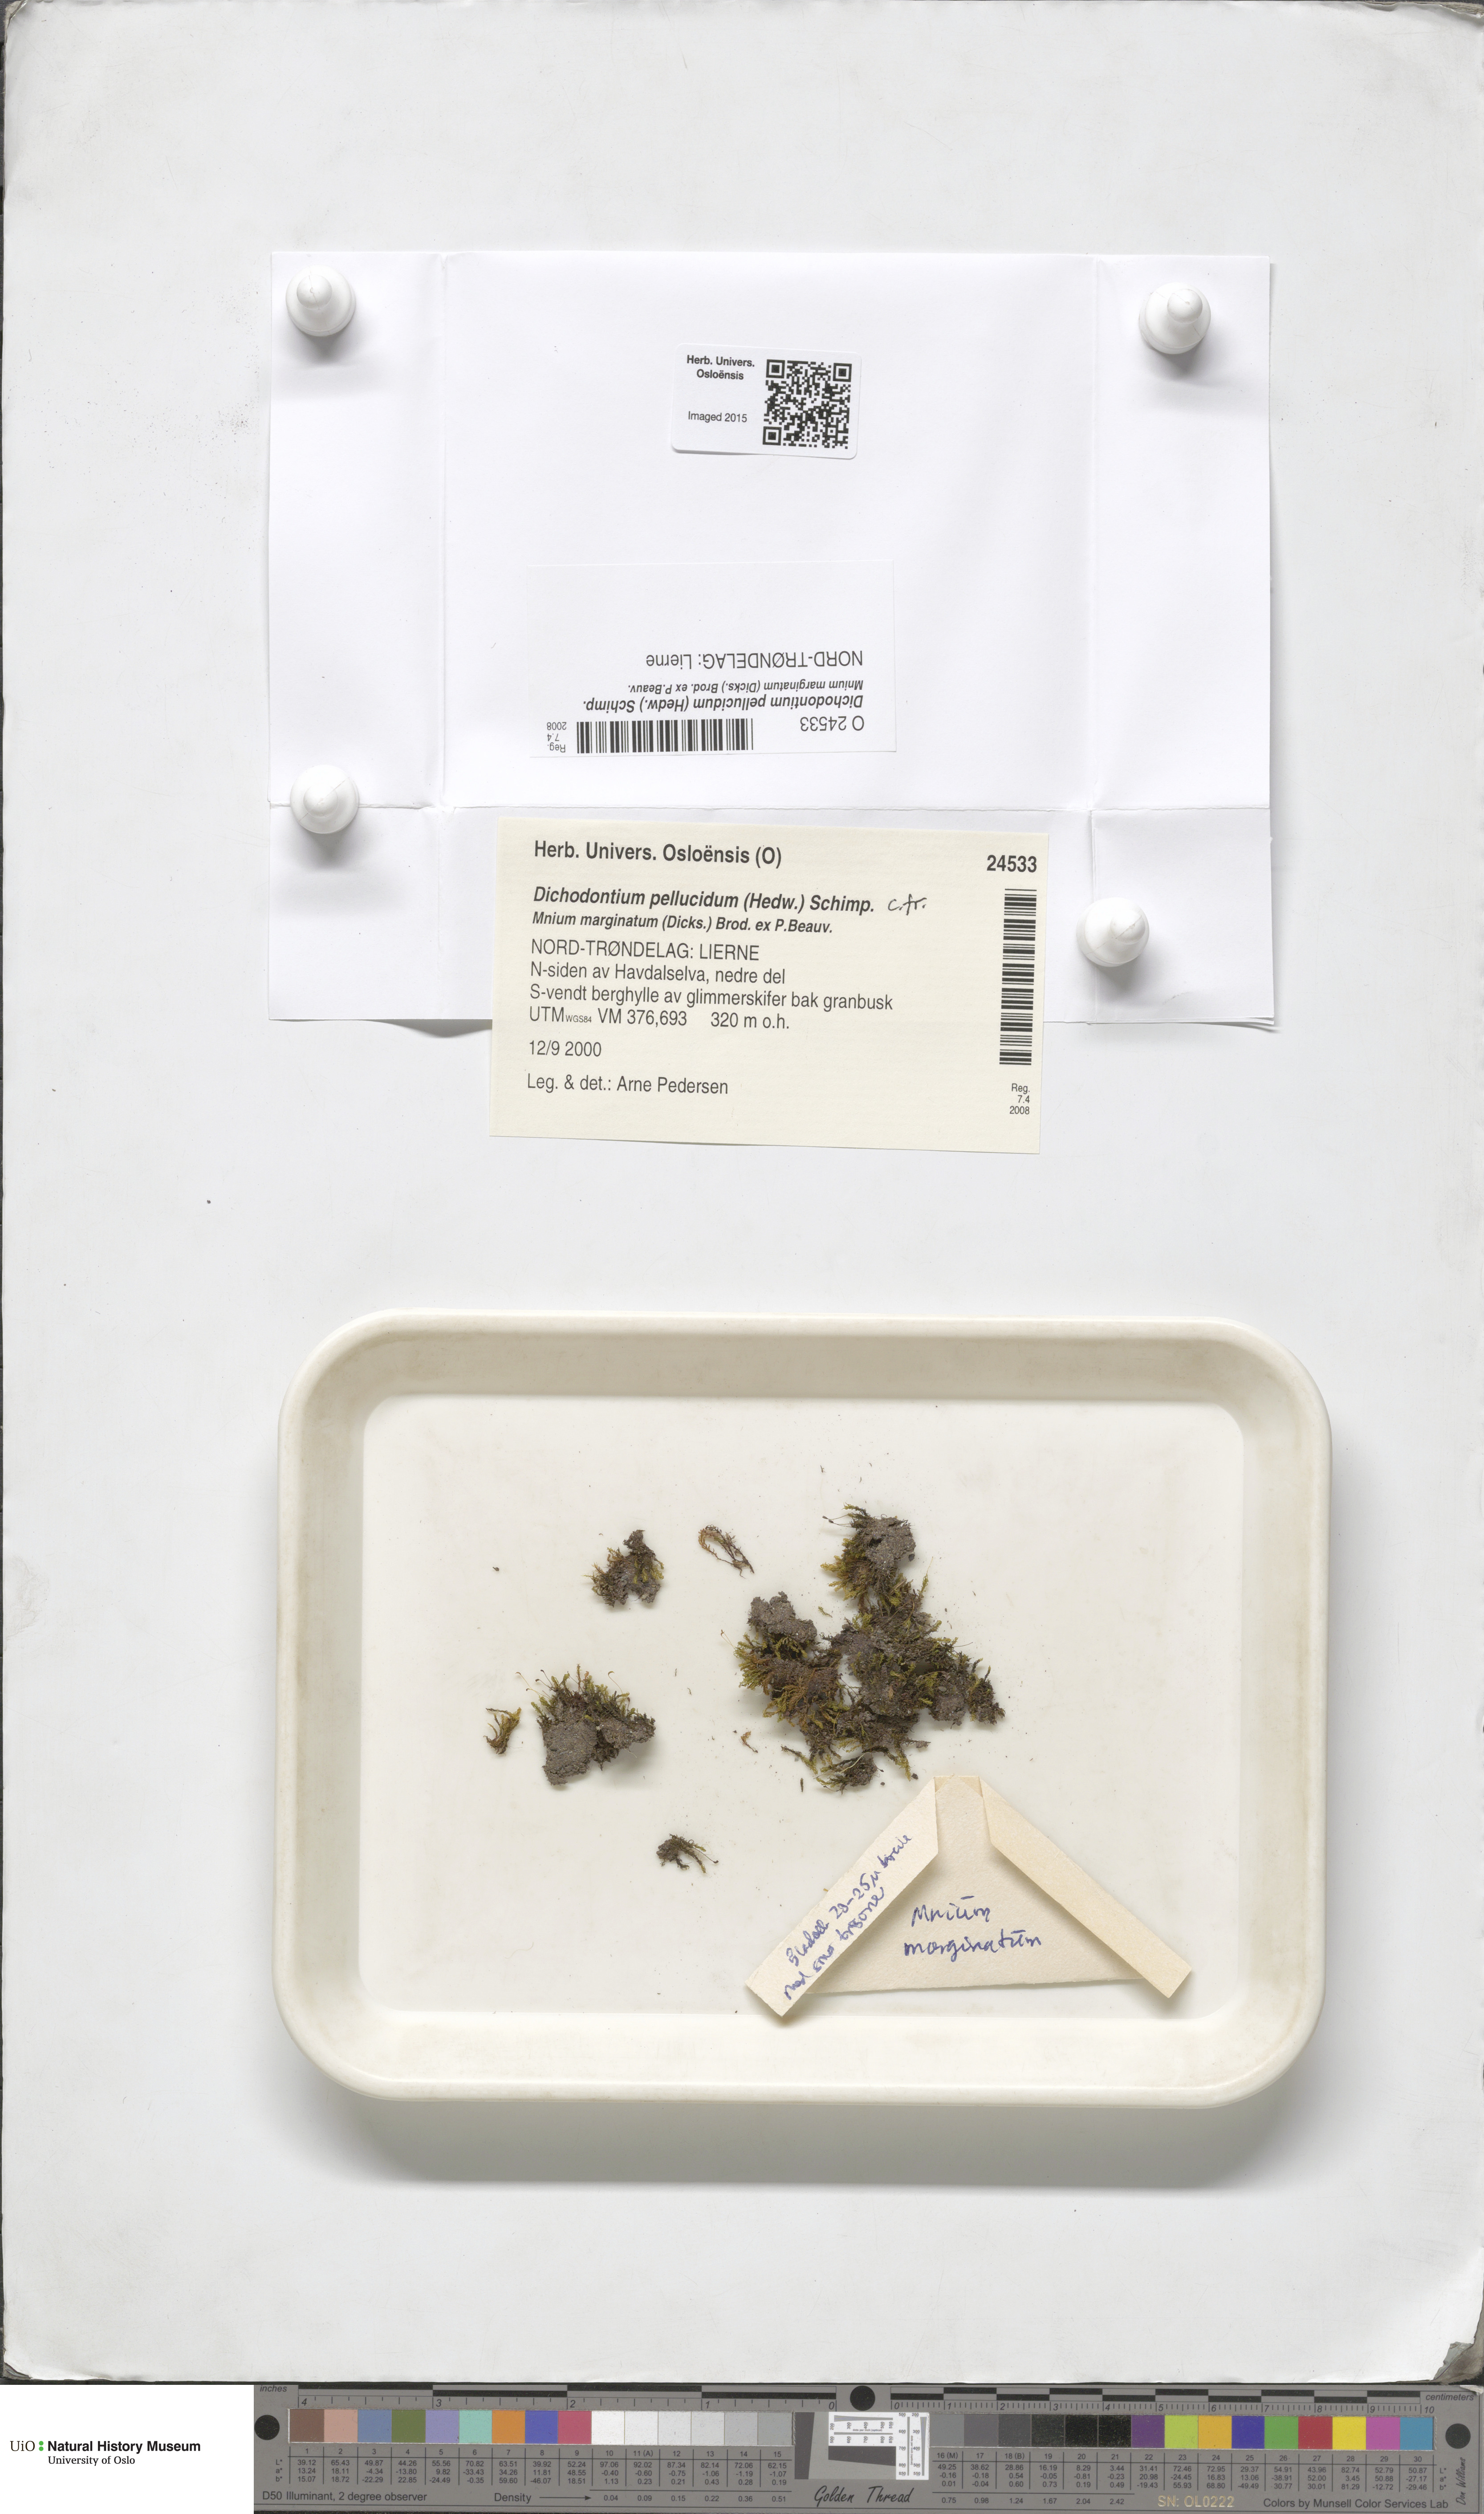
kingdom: Plantae
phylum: Bryophyta
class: Bryopsida
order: Dicranales
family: Aongstroemiaceae
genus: Dichodontium
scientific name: Dichodontium pellucidum
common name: Transparent fork moss
